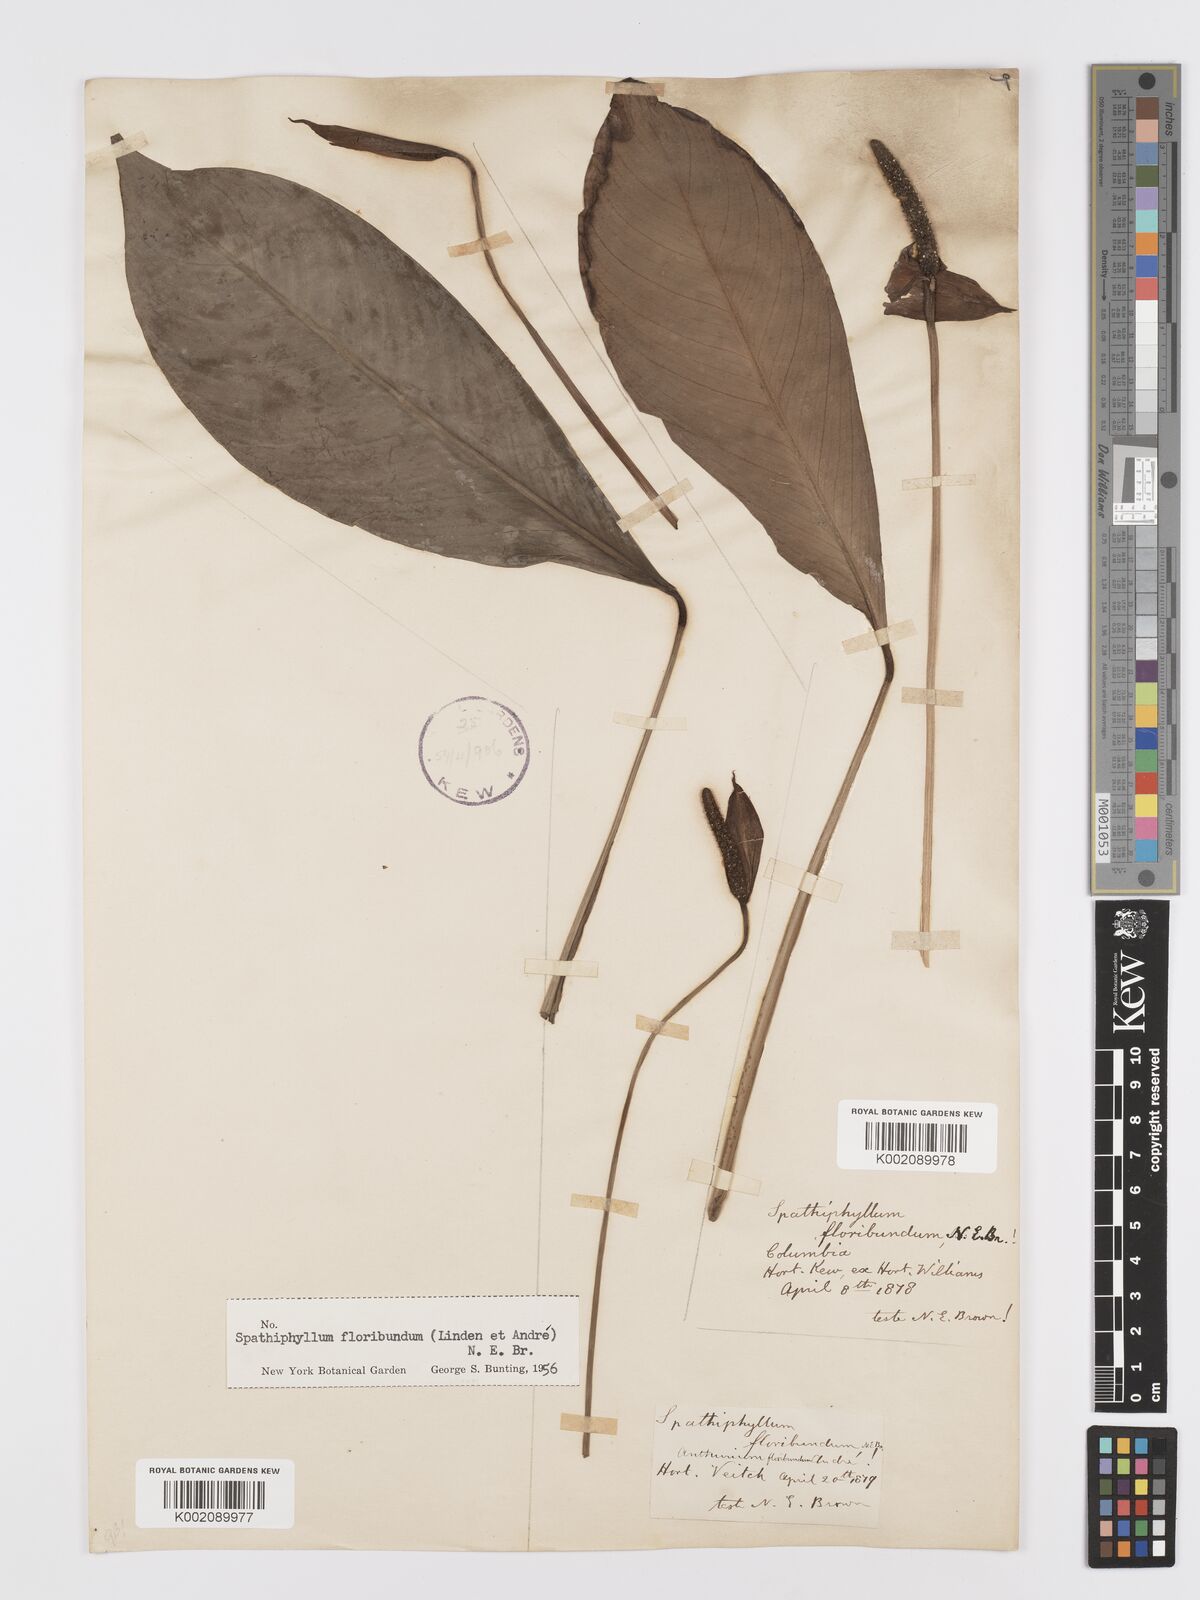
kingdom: Plantae
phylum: Tracheophyta
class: Liliopsida
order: Alismatales
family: Araceae
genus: Spathiphyllum
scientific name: Spathiphyllum floribundum
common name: Peace-lily
